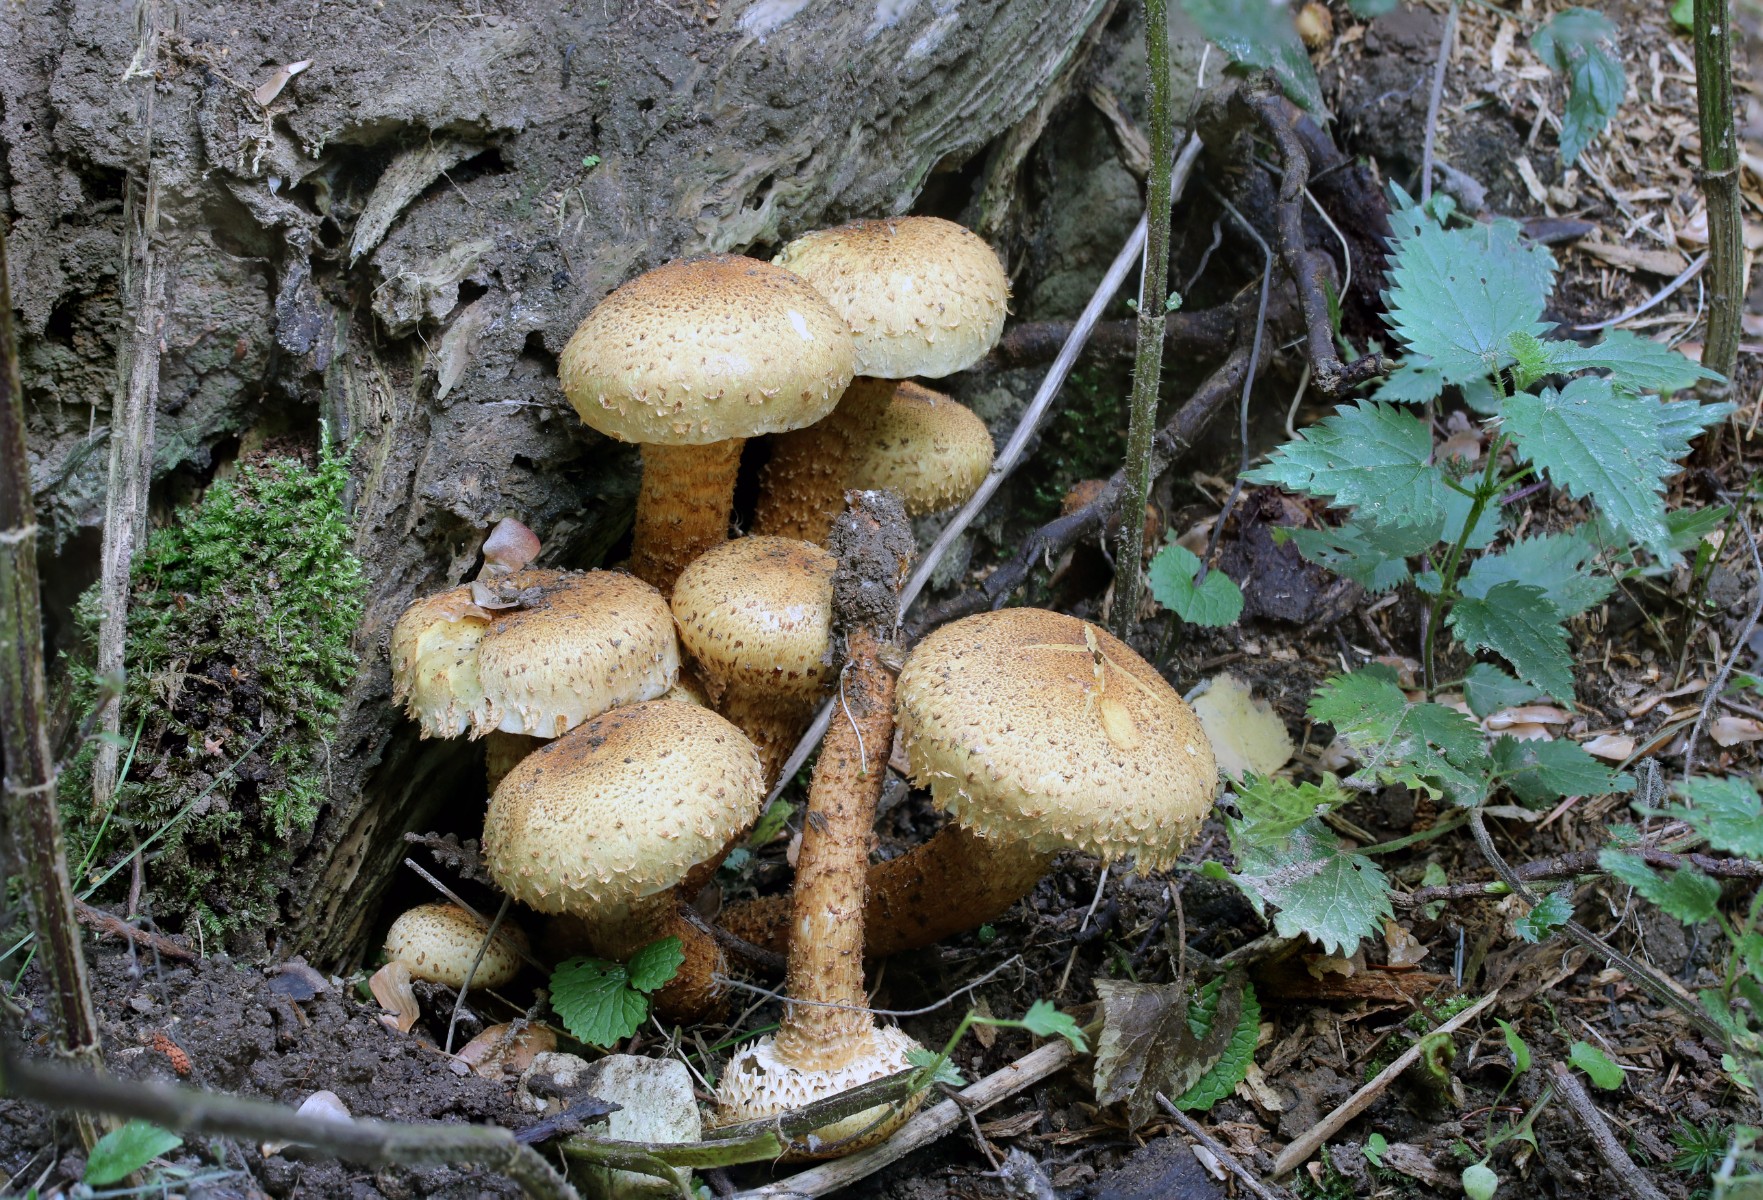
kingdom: Fungi
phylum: Basidiomycota
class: Agaricomycetes
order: Agaricales
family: Strophariaceae
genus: Pholiota
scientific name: Pholiota squarrosa
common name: krumskællet skælhat
